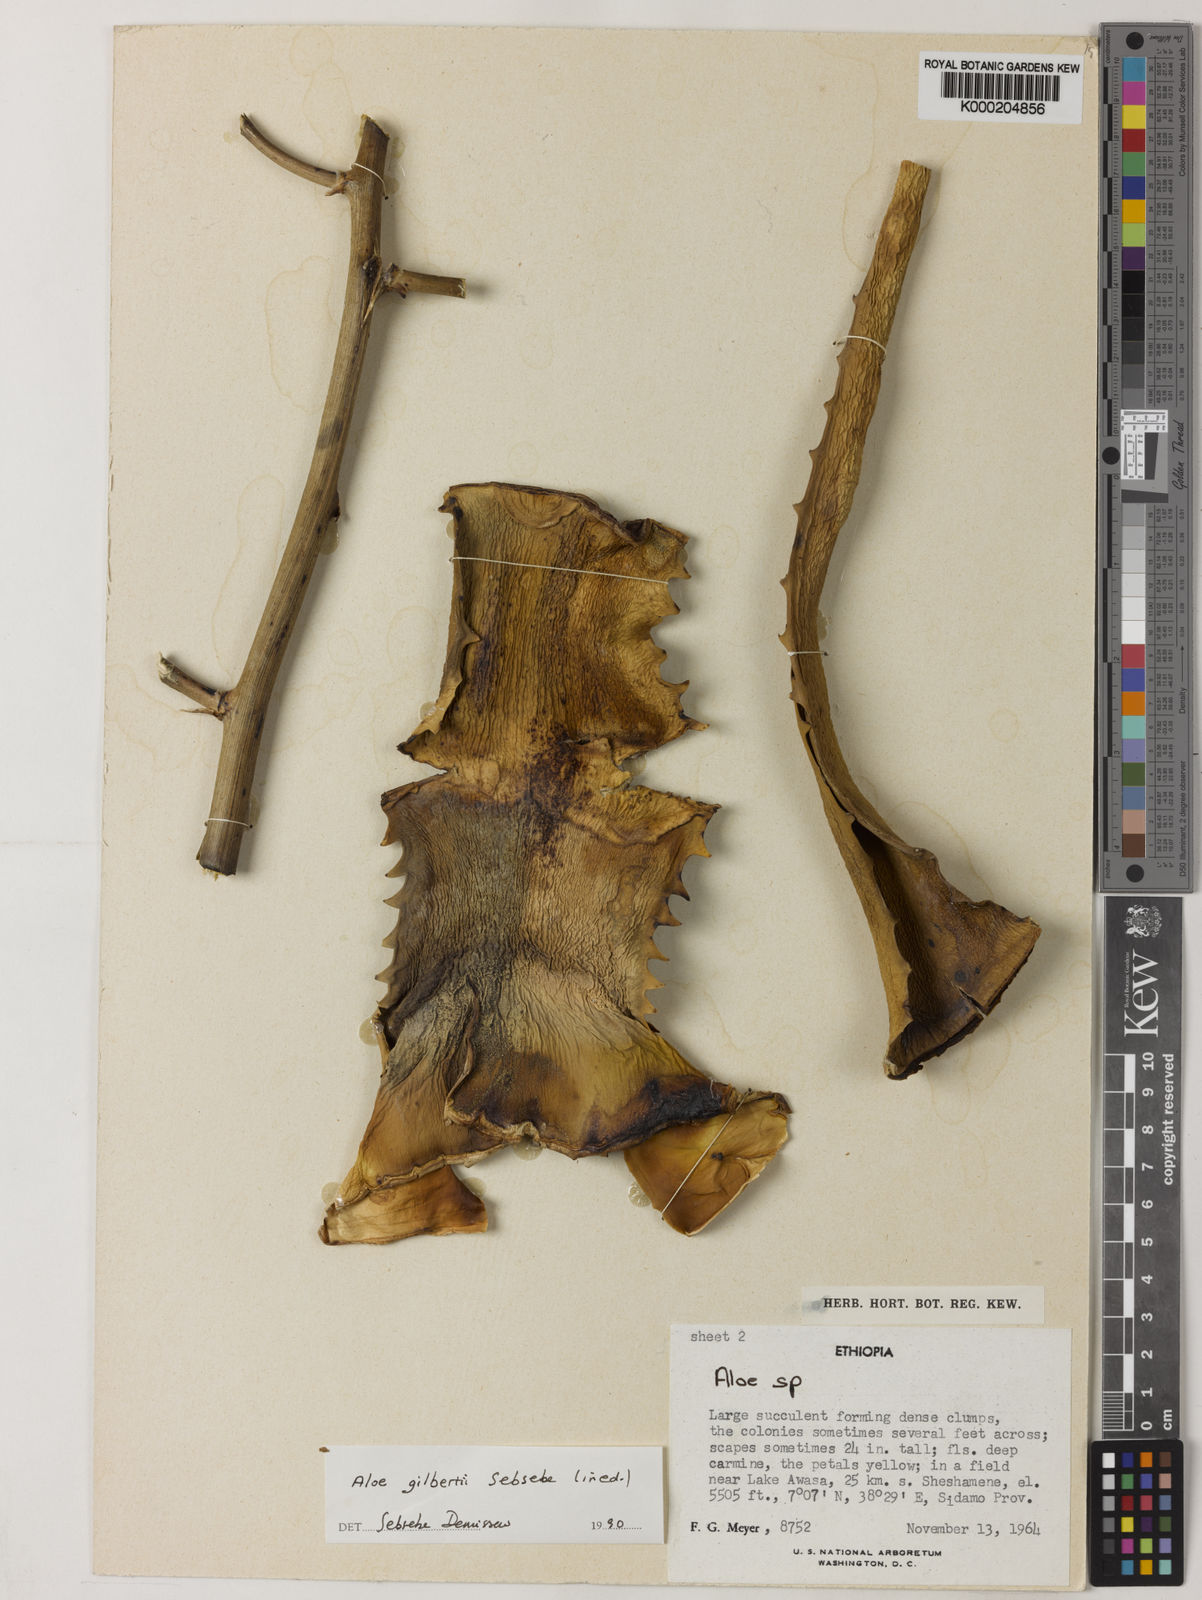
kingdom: Plantae
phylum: Tracheophyta
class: Liliopsida
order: Asparagales
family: Asphodelaceae
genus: Aloe
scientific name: Aloe gilbertii
